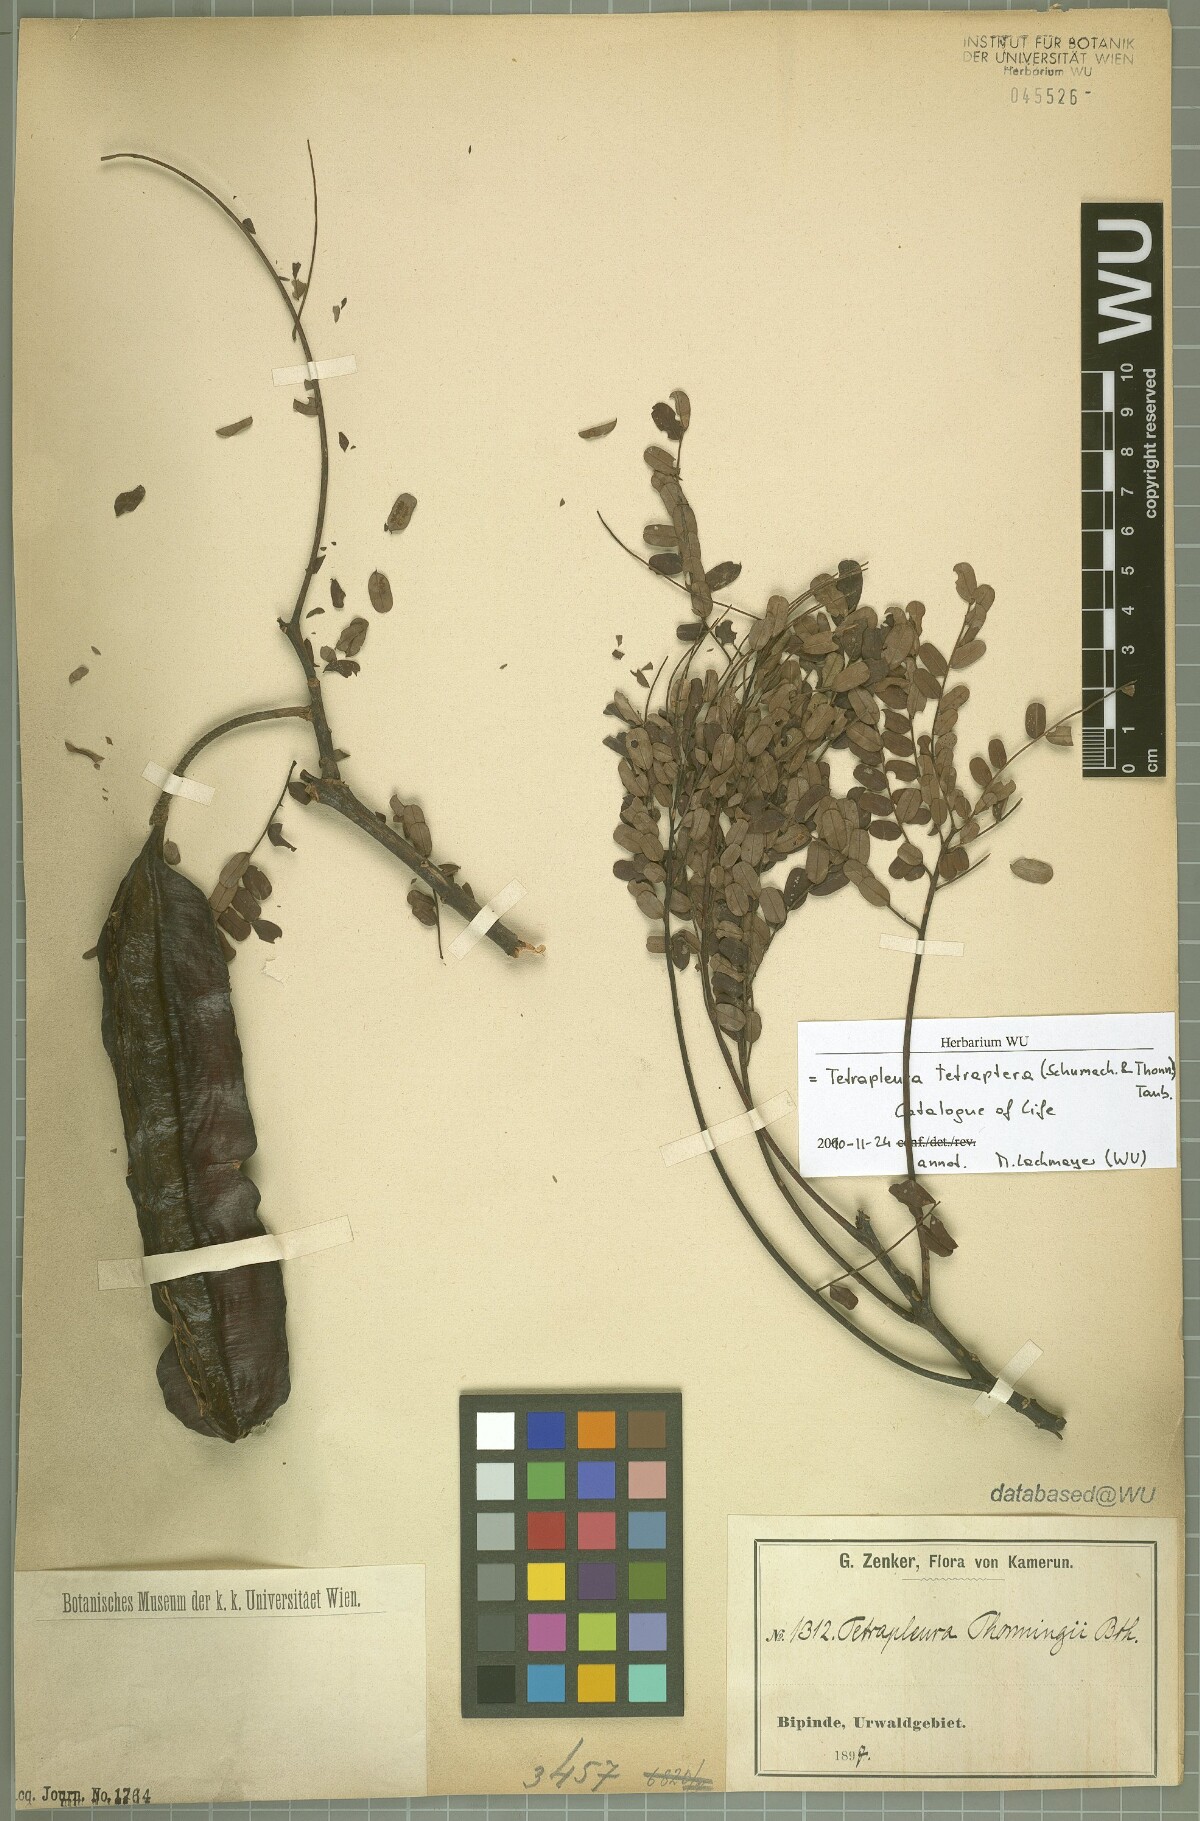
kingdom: Plantae
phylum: Tracheophyta
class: Magnoliopsida
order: Fabales
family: Fabaceae
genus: Tetrapleura
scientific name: Tetrapleura tetraptera
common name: Aridan
